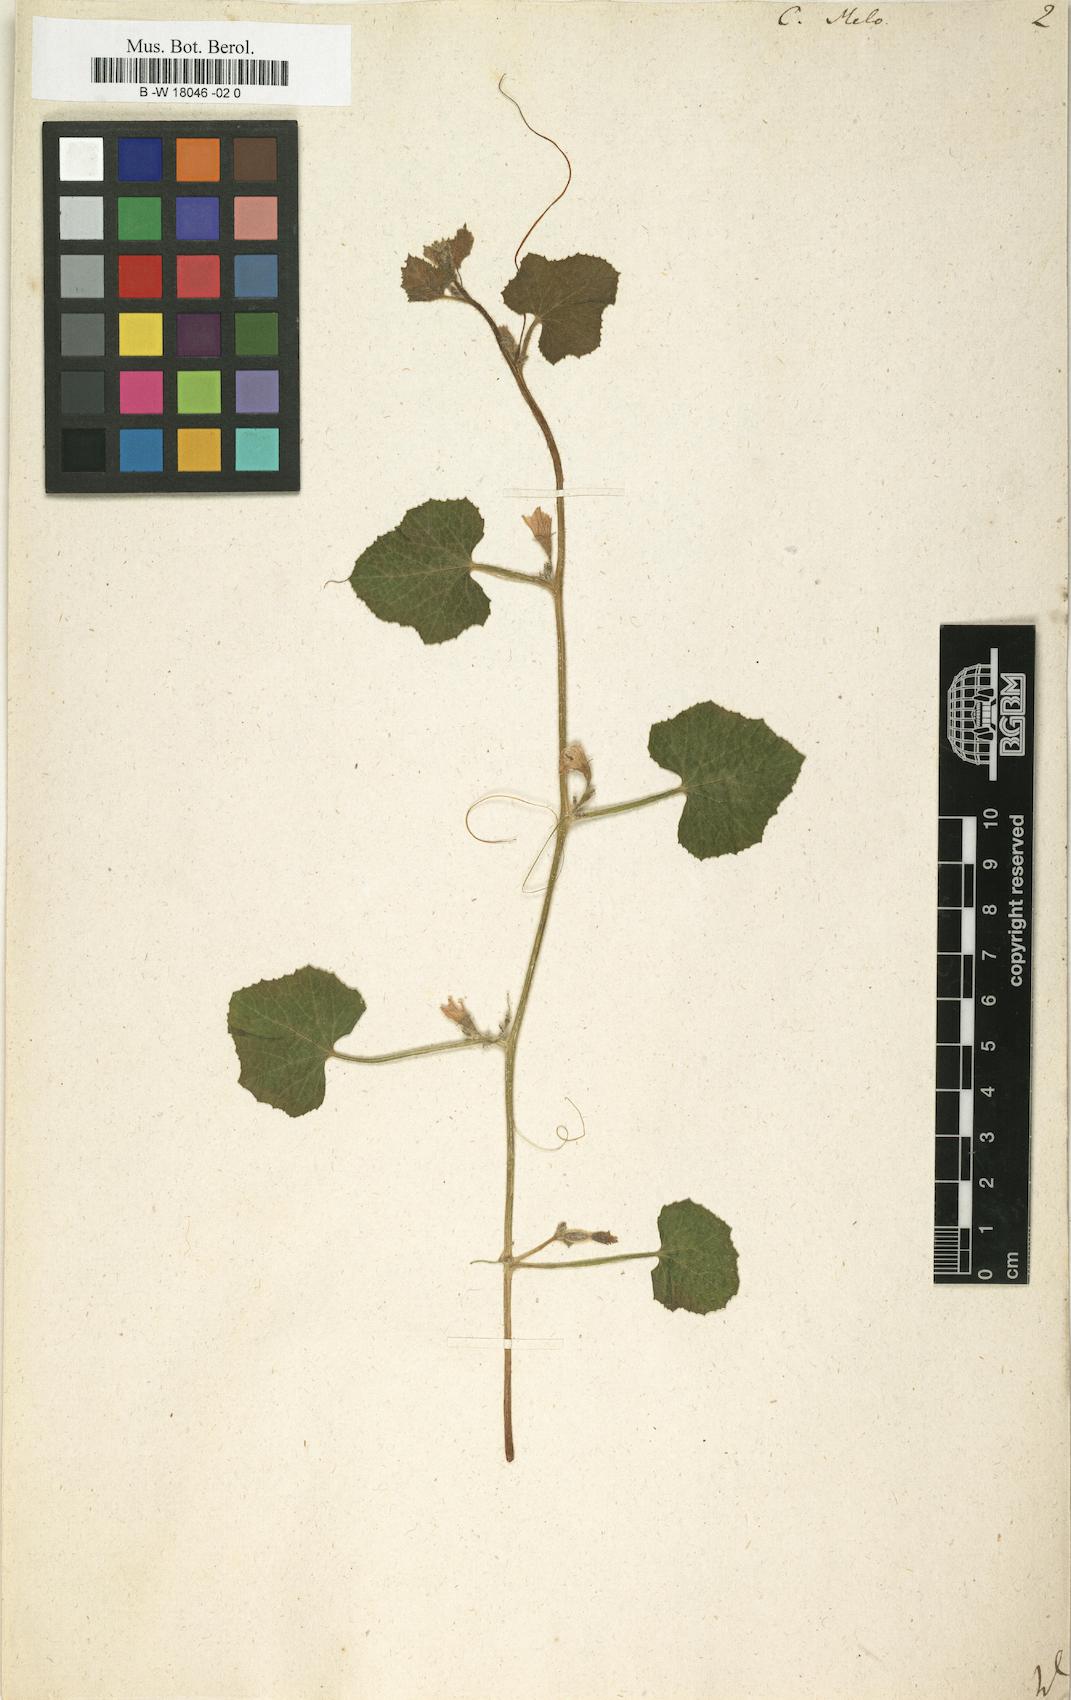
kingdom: Plantae
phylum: Tracheophyta
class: Magnoliopsida
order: Cucurbitales
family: Cucurbitaceae
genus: Cucumis
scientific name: Cucumis melo
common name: Melon
